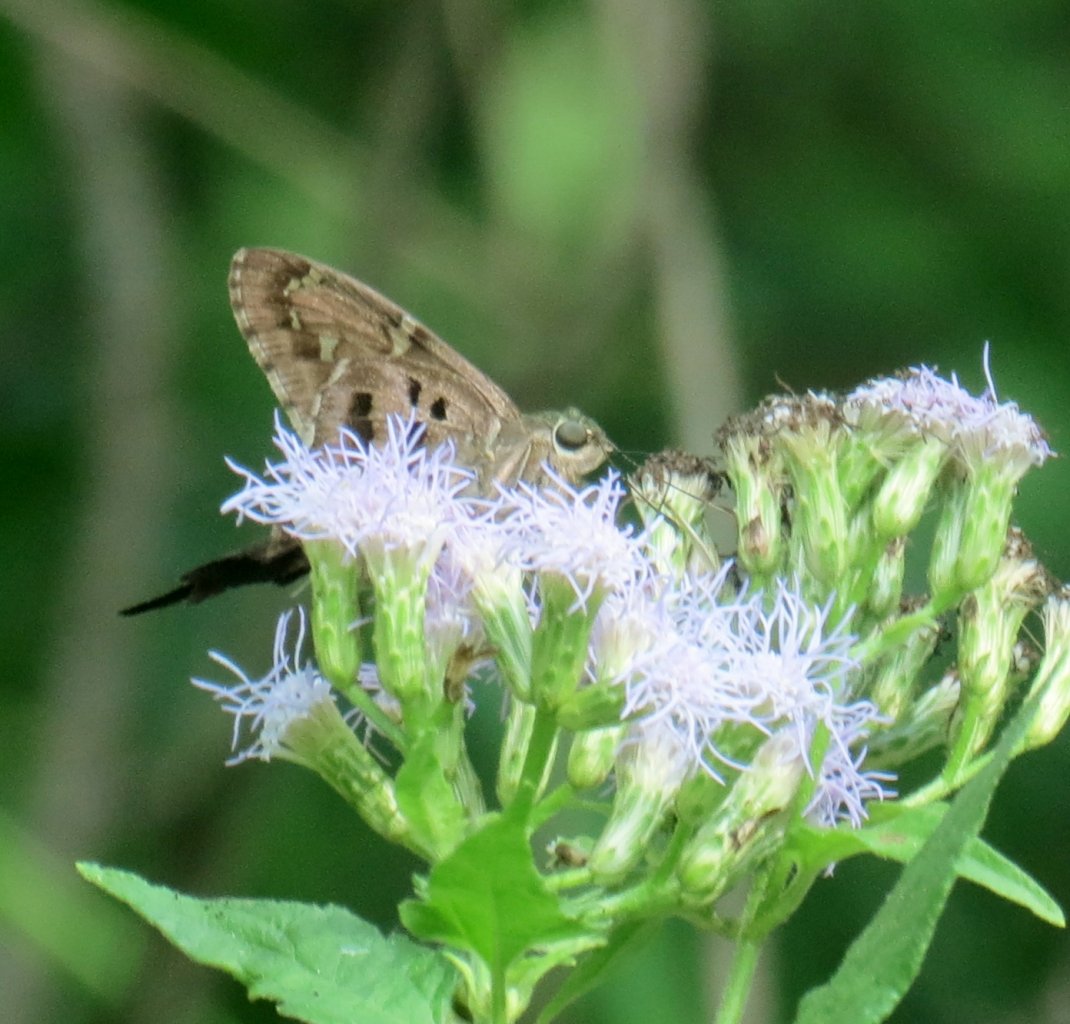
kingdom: Animalia
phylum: Arthropoda
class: Insecta
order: Lepidoptera
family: Hesperiidae
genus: Urbanus
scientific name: Urbanus proteus
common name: Long-tailed Skipper
